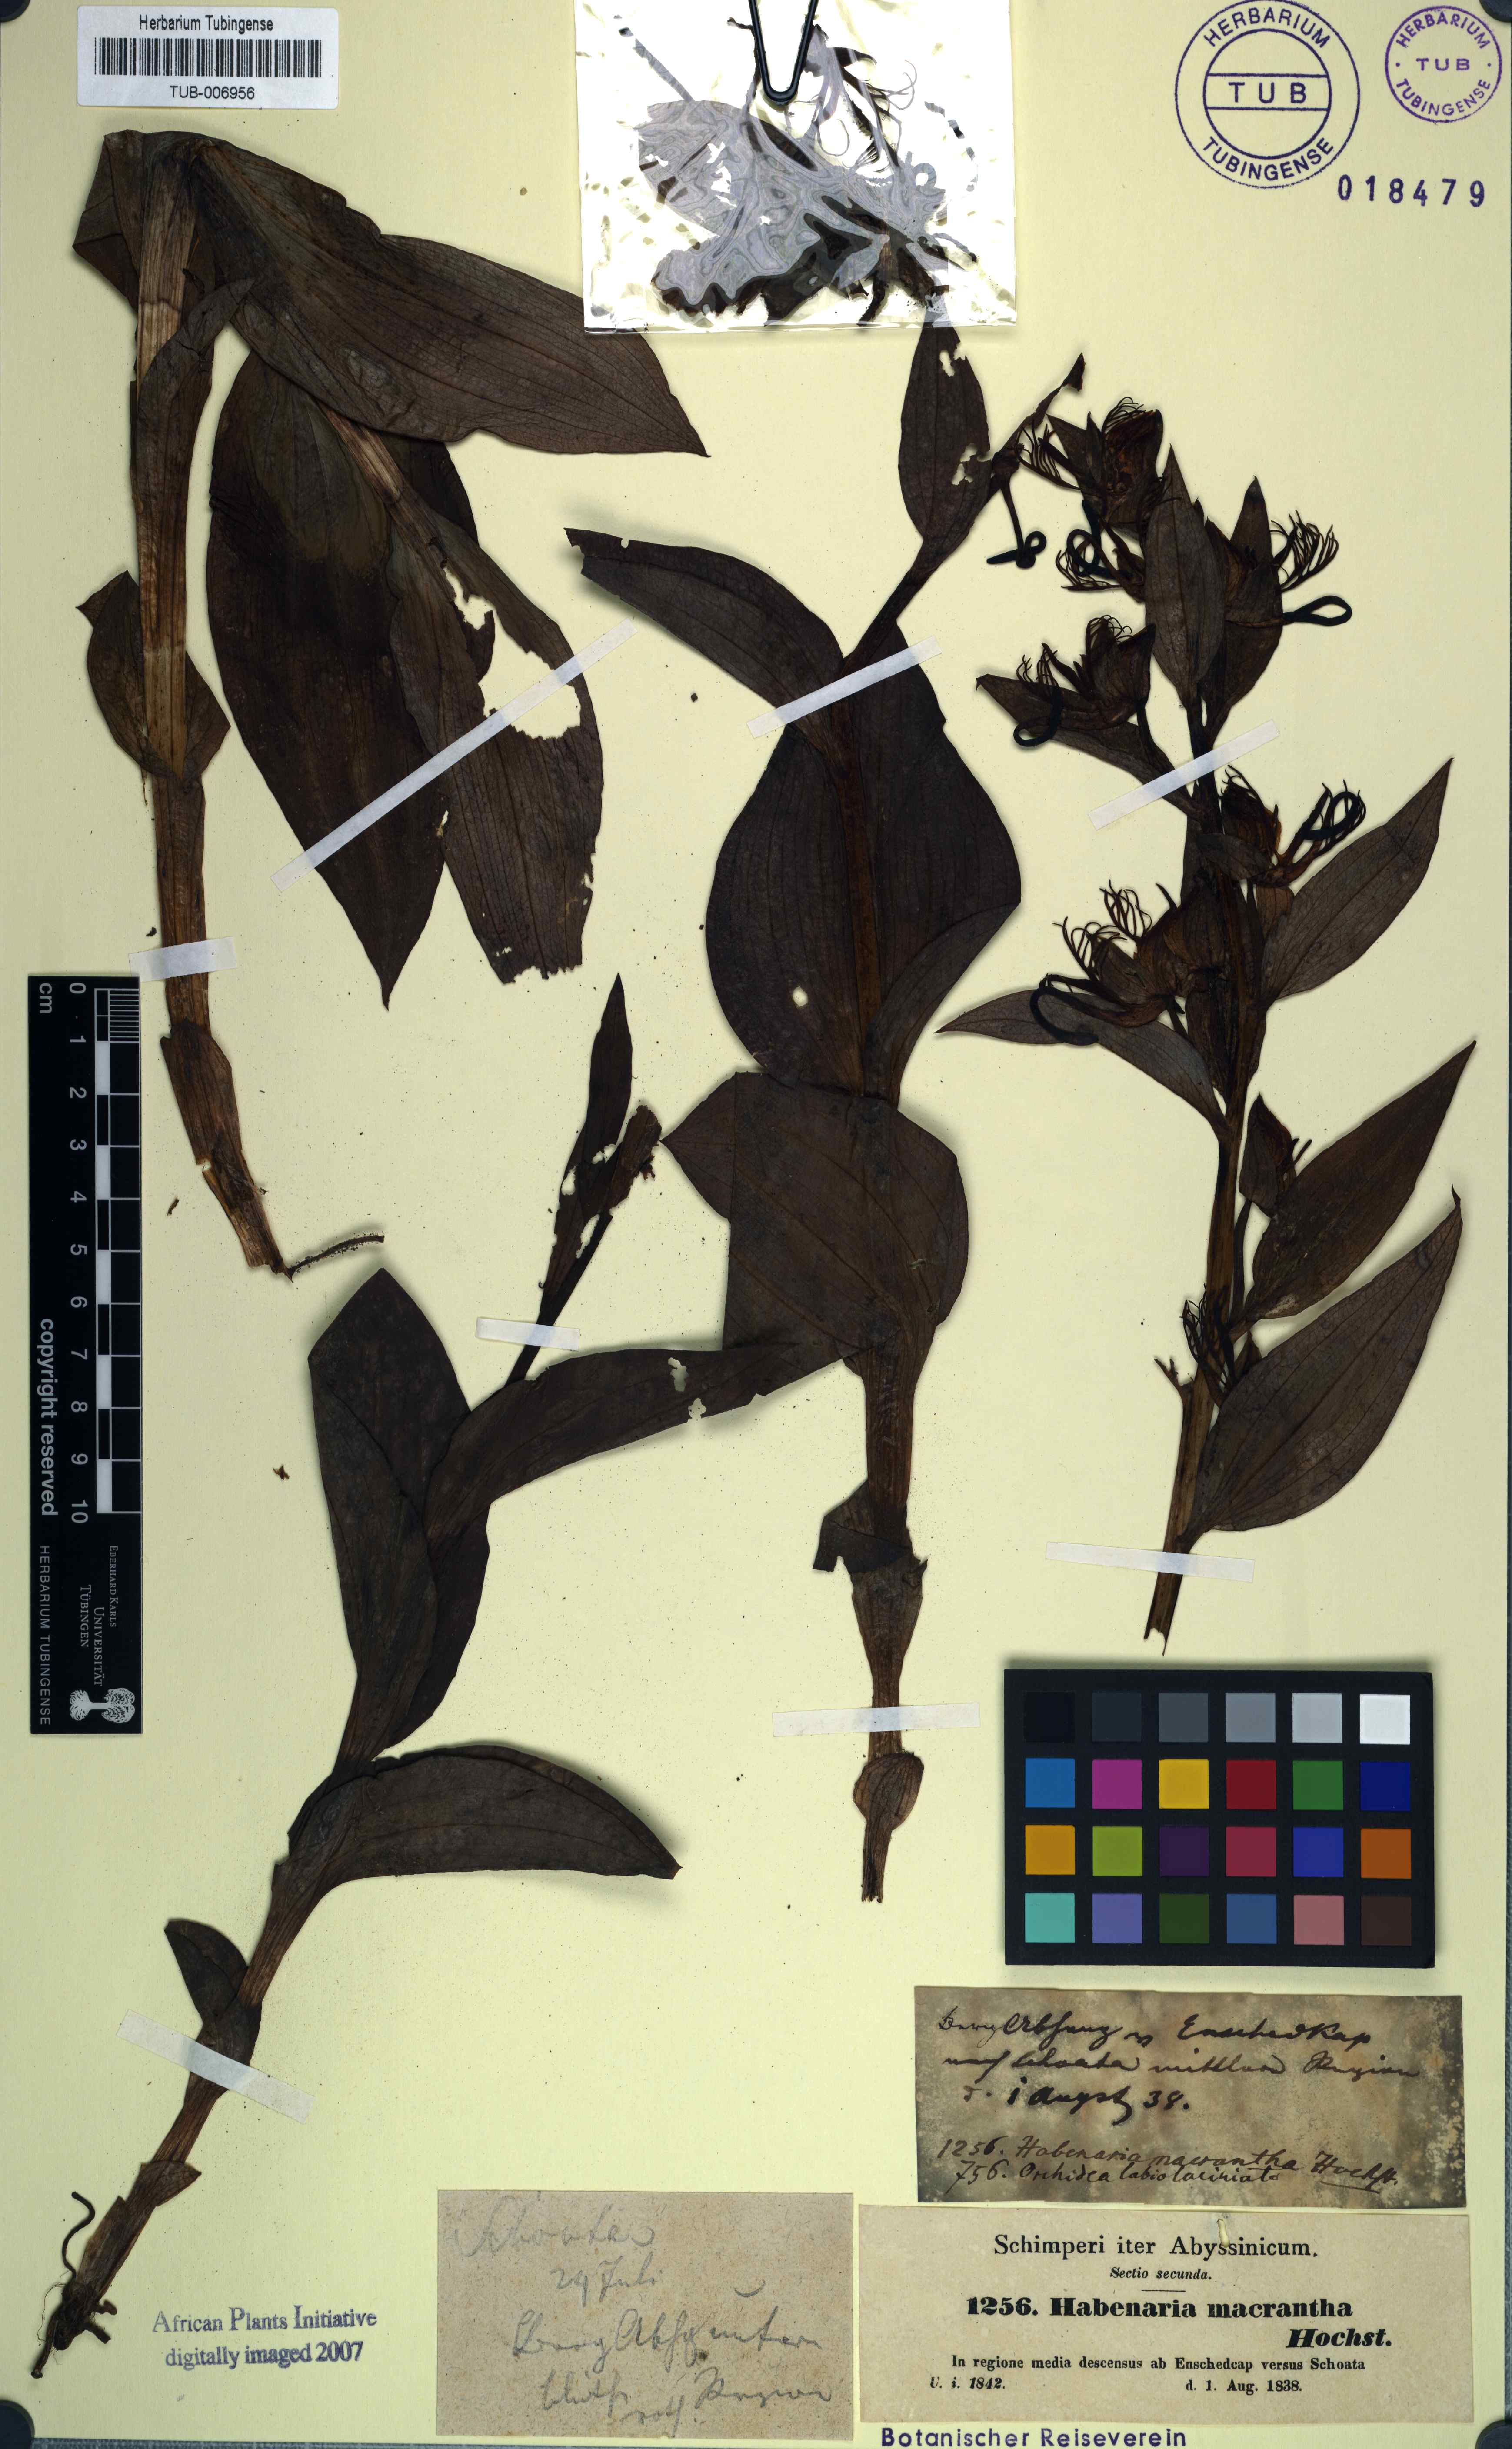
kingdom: Plantae
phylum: Tracheophyta
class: Liliopsida
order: Asparagales
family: Orchidaceae
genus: Habenaria
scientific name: Habenaria macrantha
